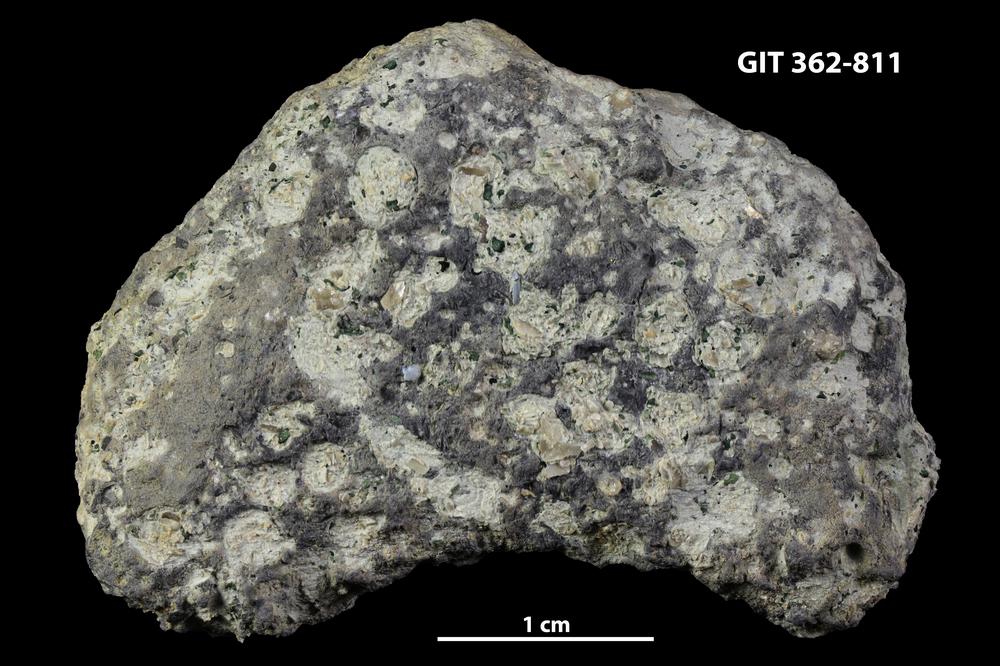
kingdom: Animalia
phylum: Sipuncula
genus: Trypanites
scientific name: Trypanites
